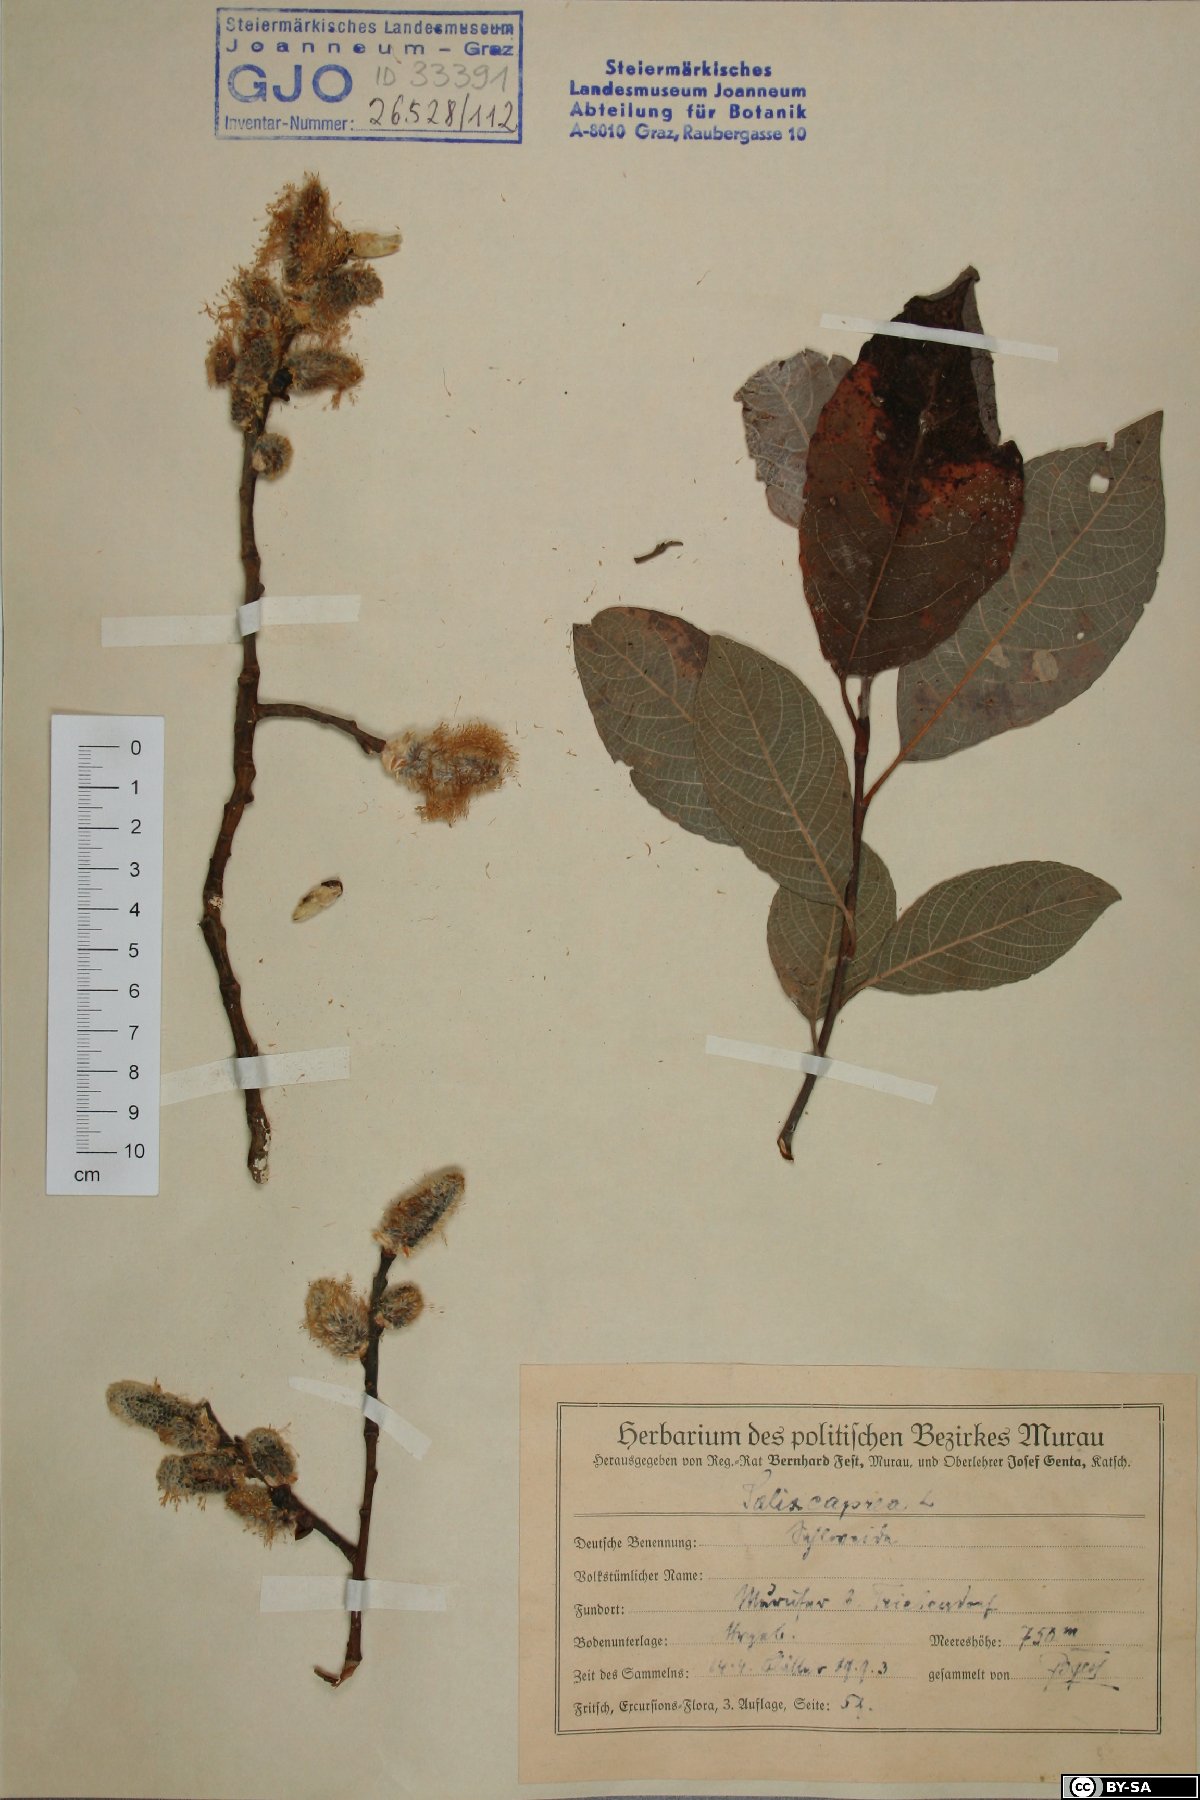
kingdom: Plantae
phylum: Tracheophyta
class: Magnoliopsida
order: Malpighiales
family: Salicaceae
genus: Salix
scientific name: Salix caprea
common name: Goat willow
